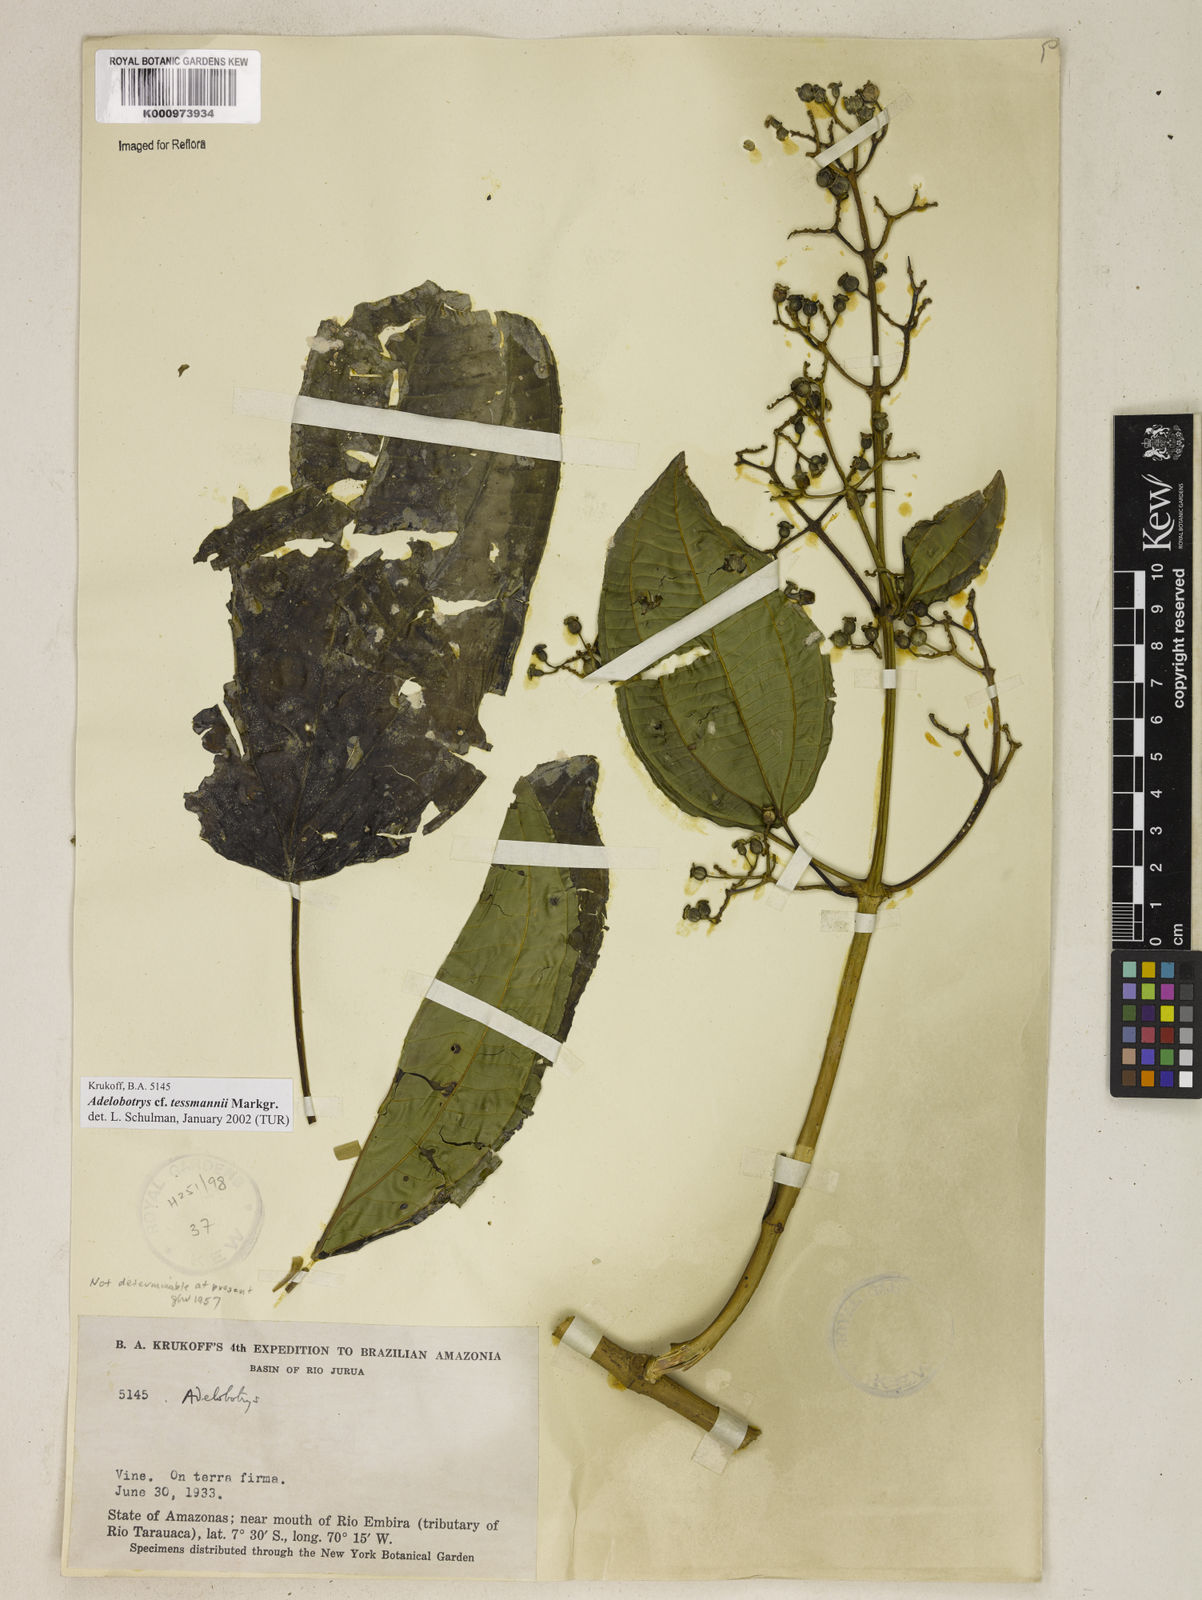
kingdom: Plantae
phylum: Tracheophyta
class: Magnoliopsida
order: Myrtales
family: Melastomataceae
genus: Adelobotrys
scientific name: Adelobotrys latifolius
